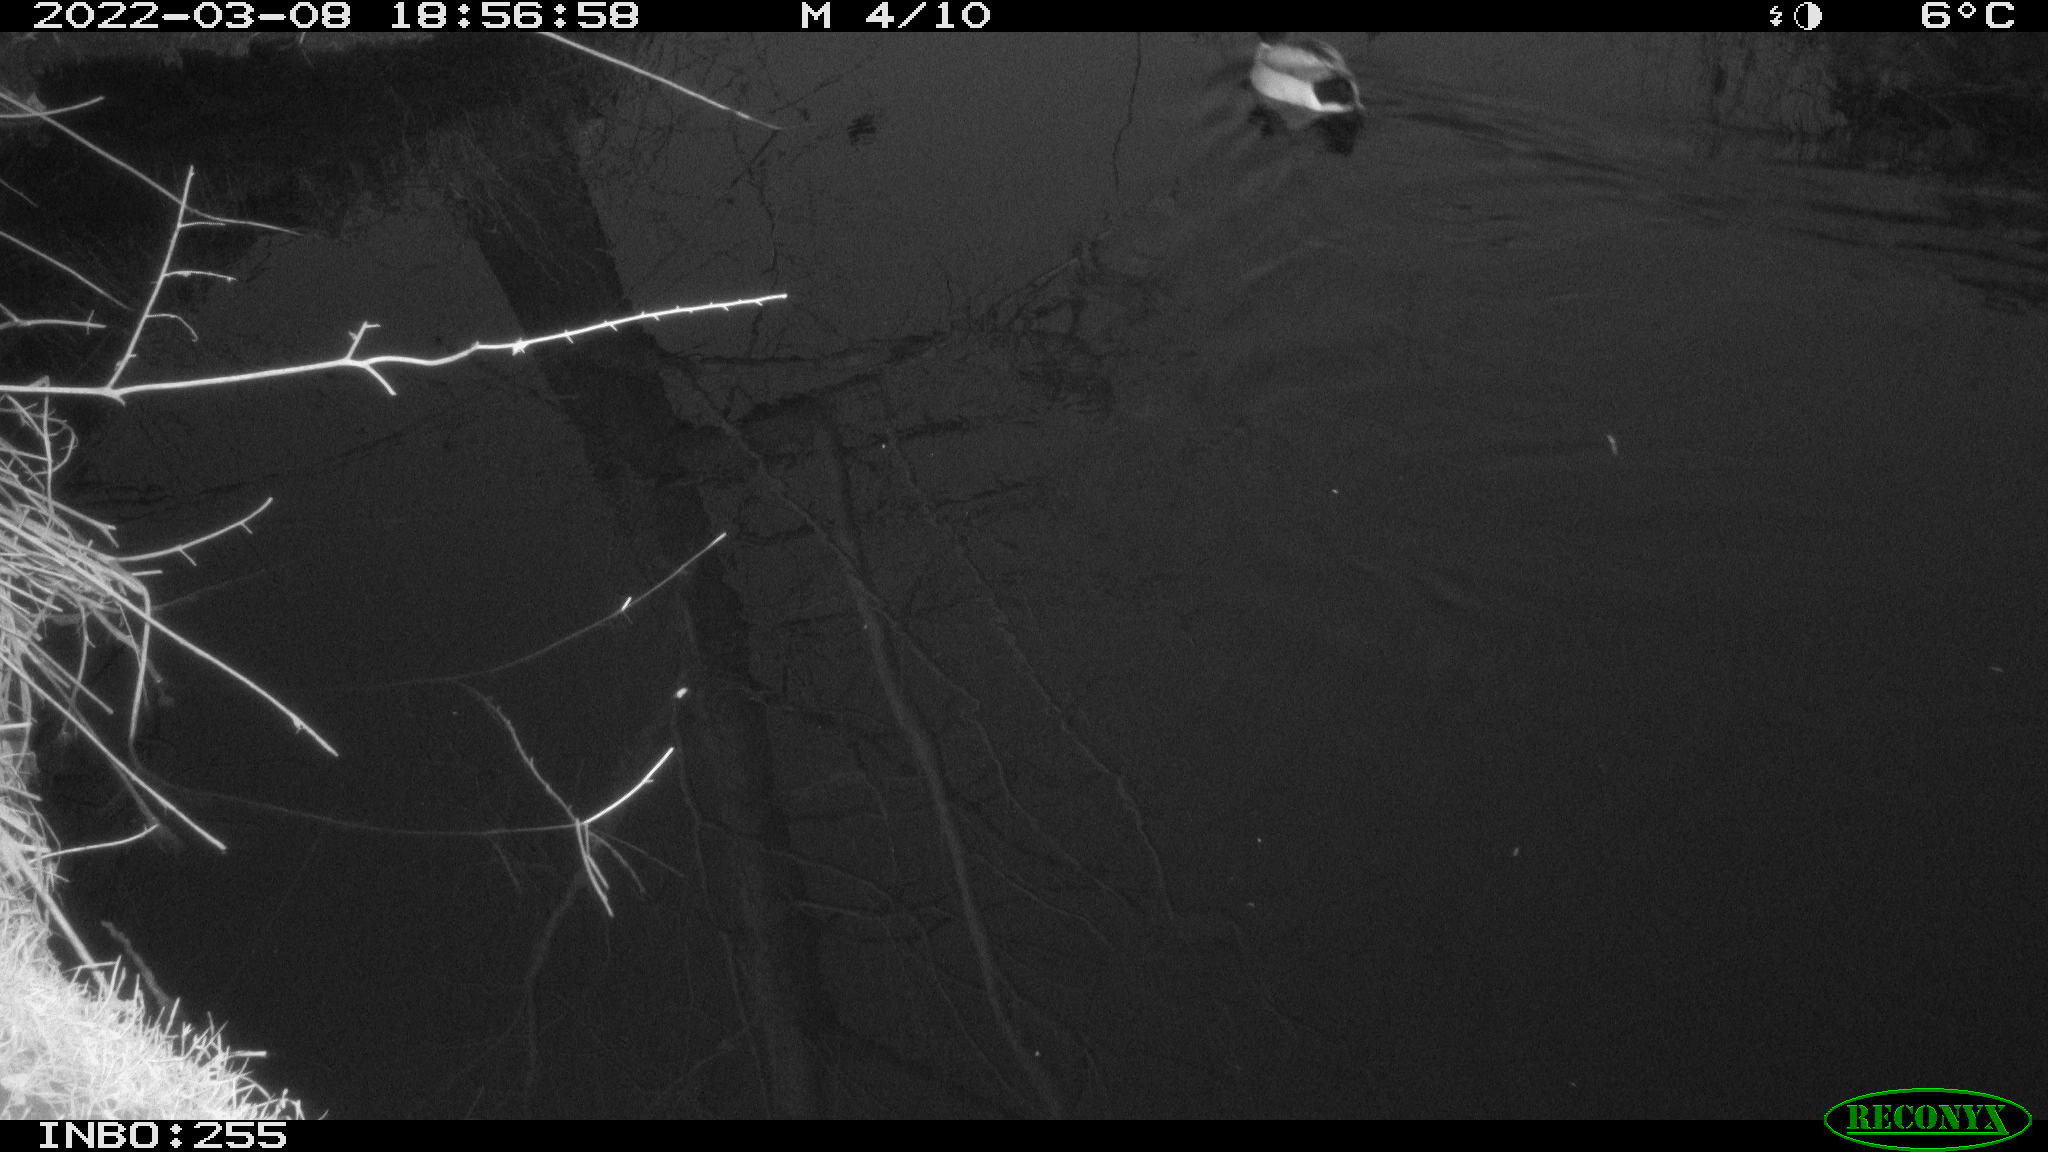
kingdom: Animalia
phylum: Chordata
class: Aves
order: Anseriformes
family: Anatidae
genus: Anas
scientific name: Anas platyrhynchos
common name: Mallard
